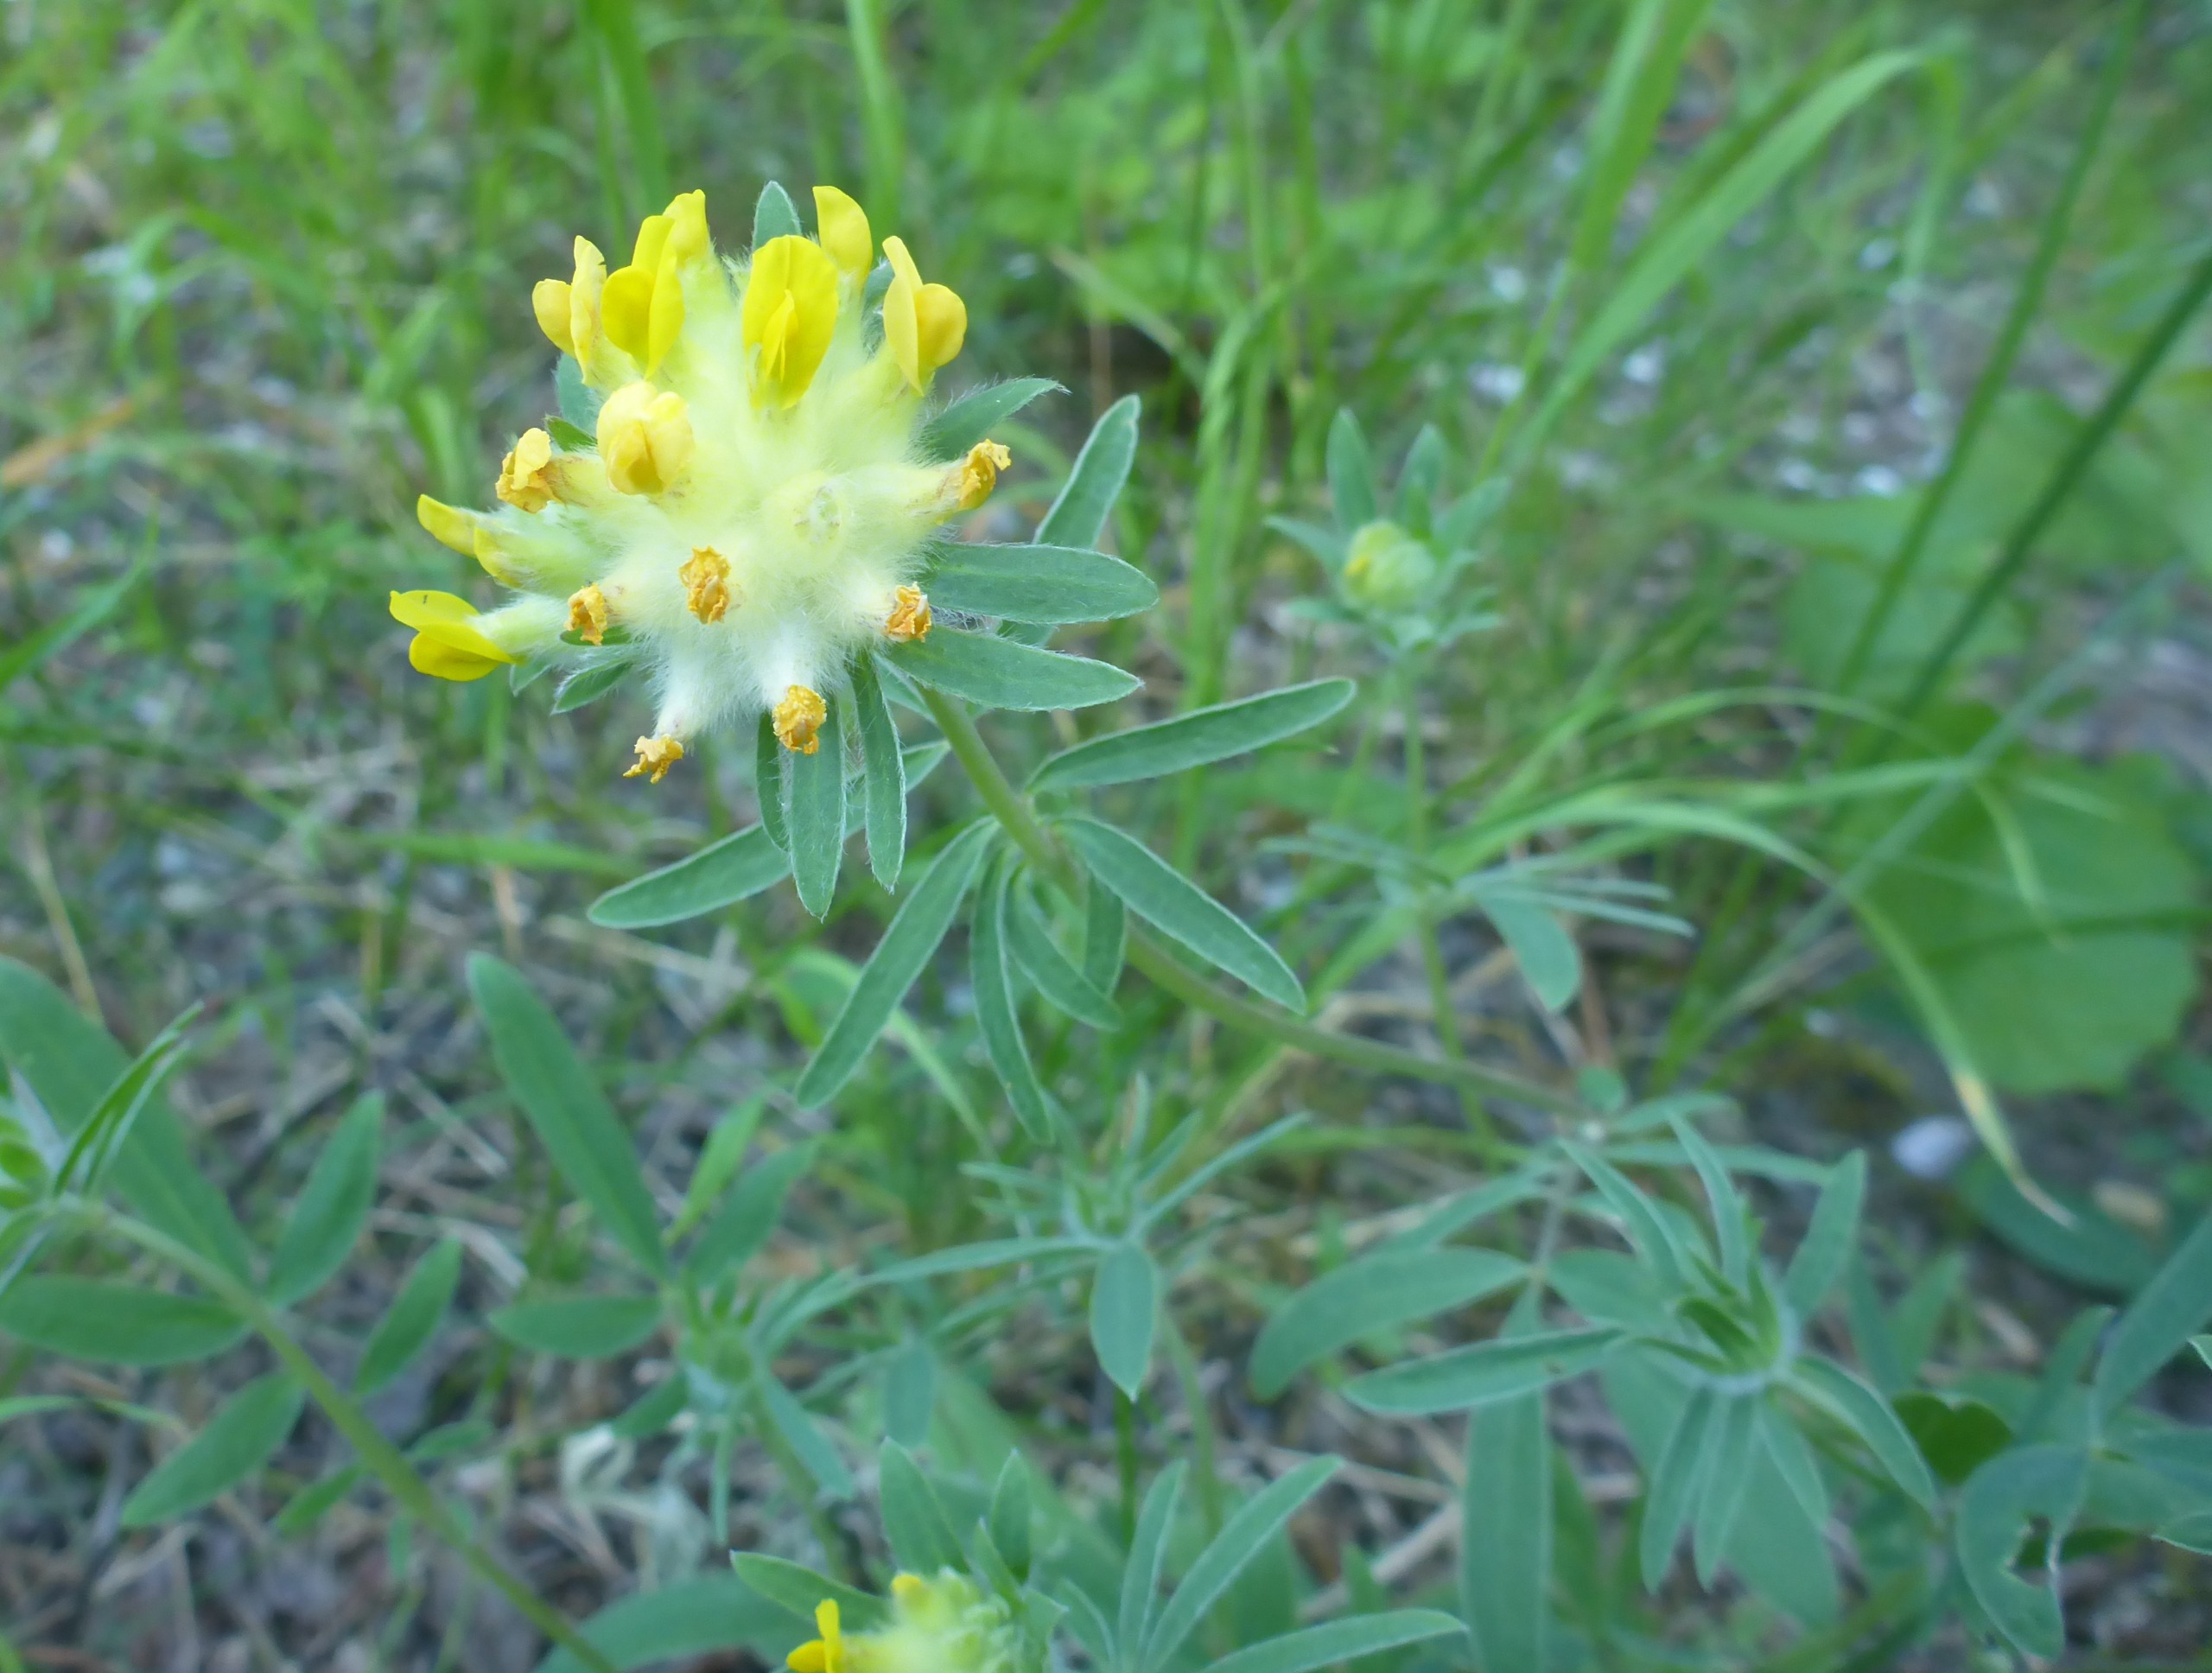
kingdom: Plantae
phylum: Tracheophyta
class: Magnoliopsida
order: Fabales
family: Fabaceae
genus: Anthyllis
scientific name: Anthyllis vulneraria
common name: Rundbælg
